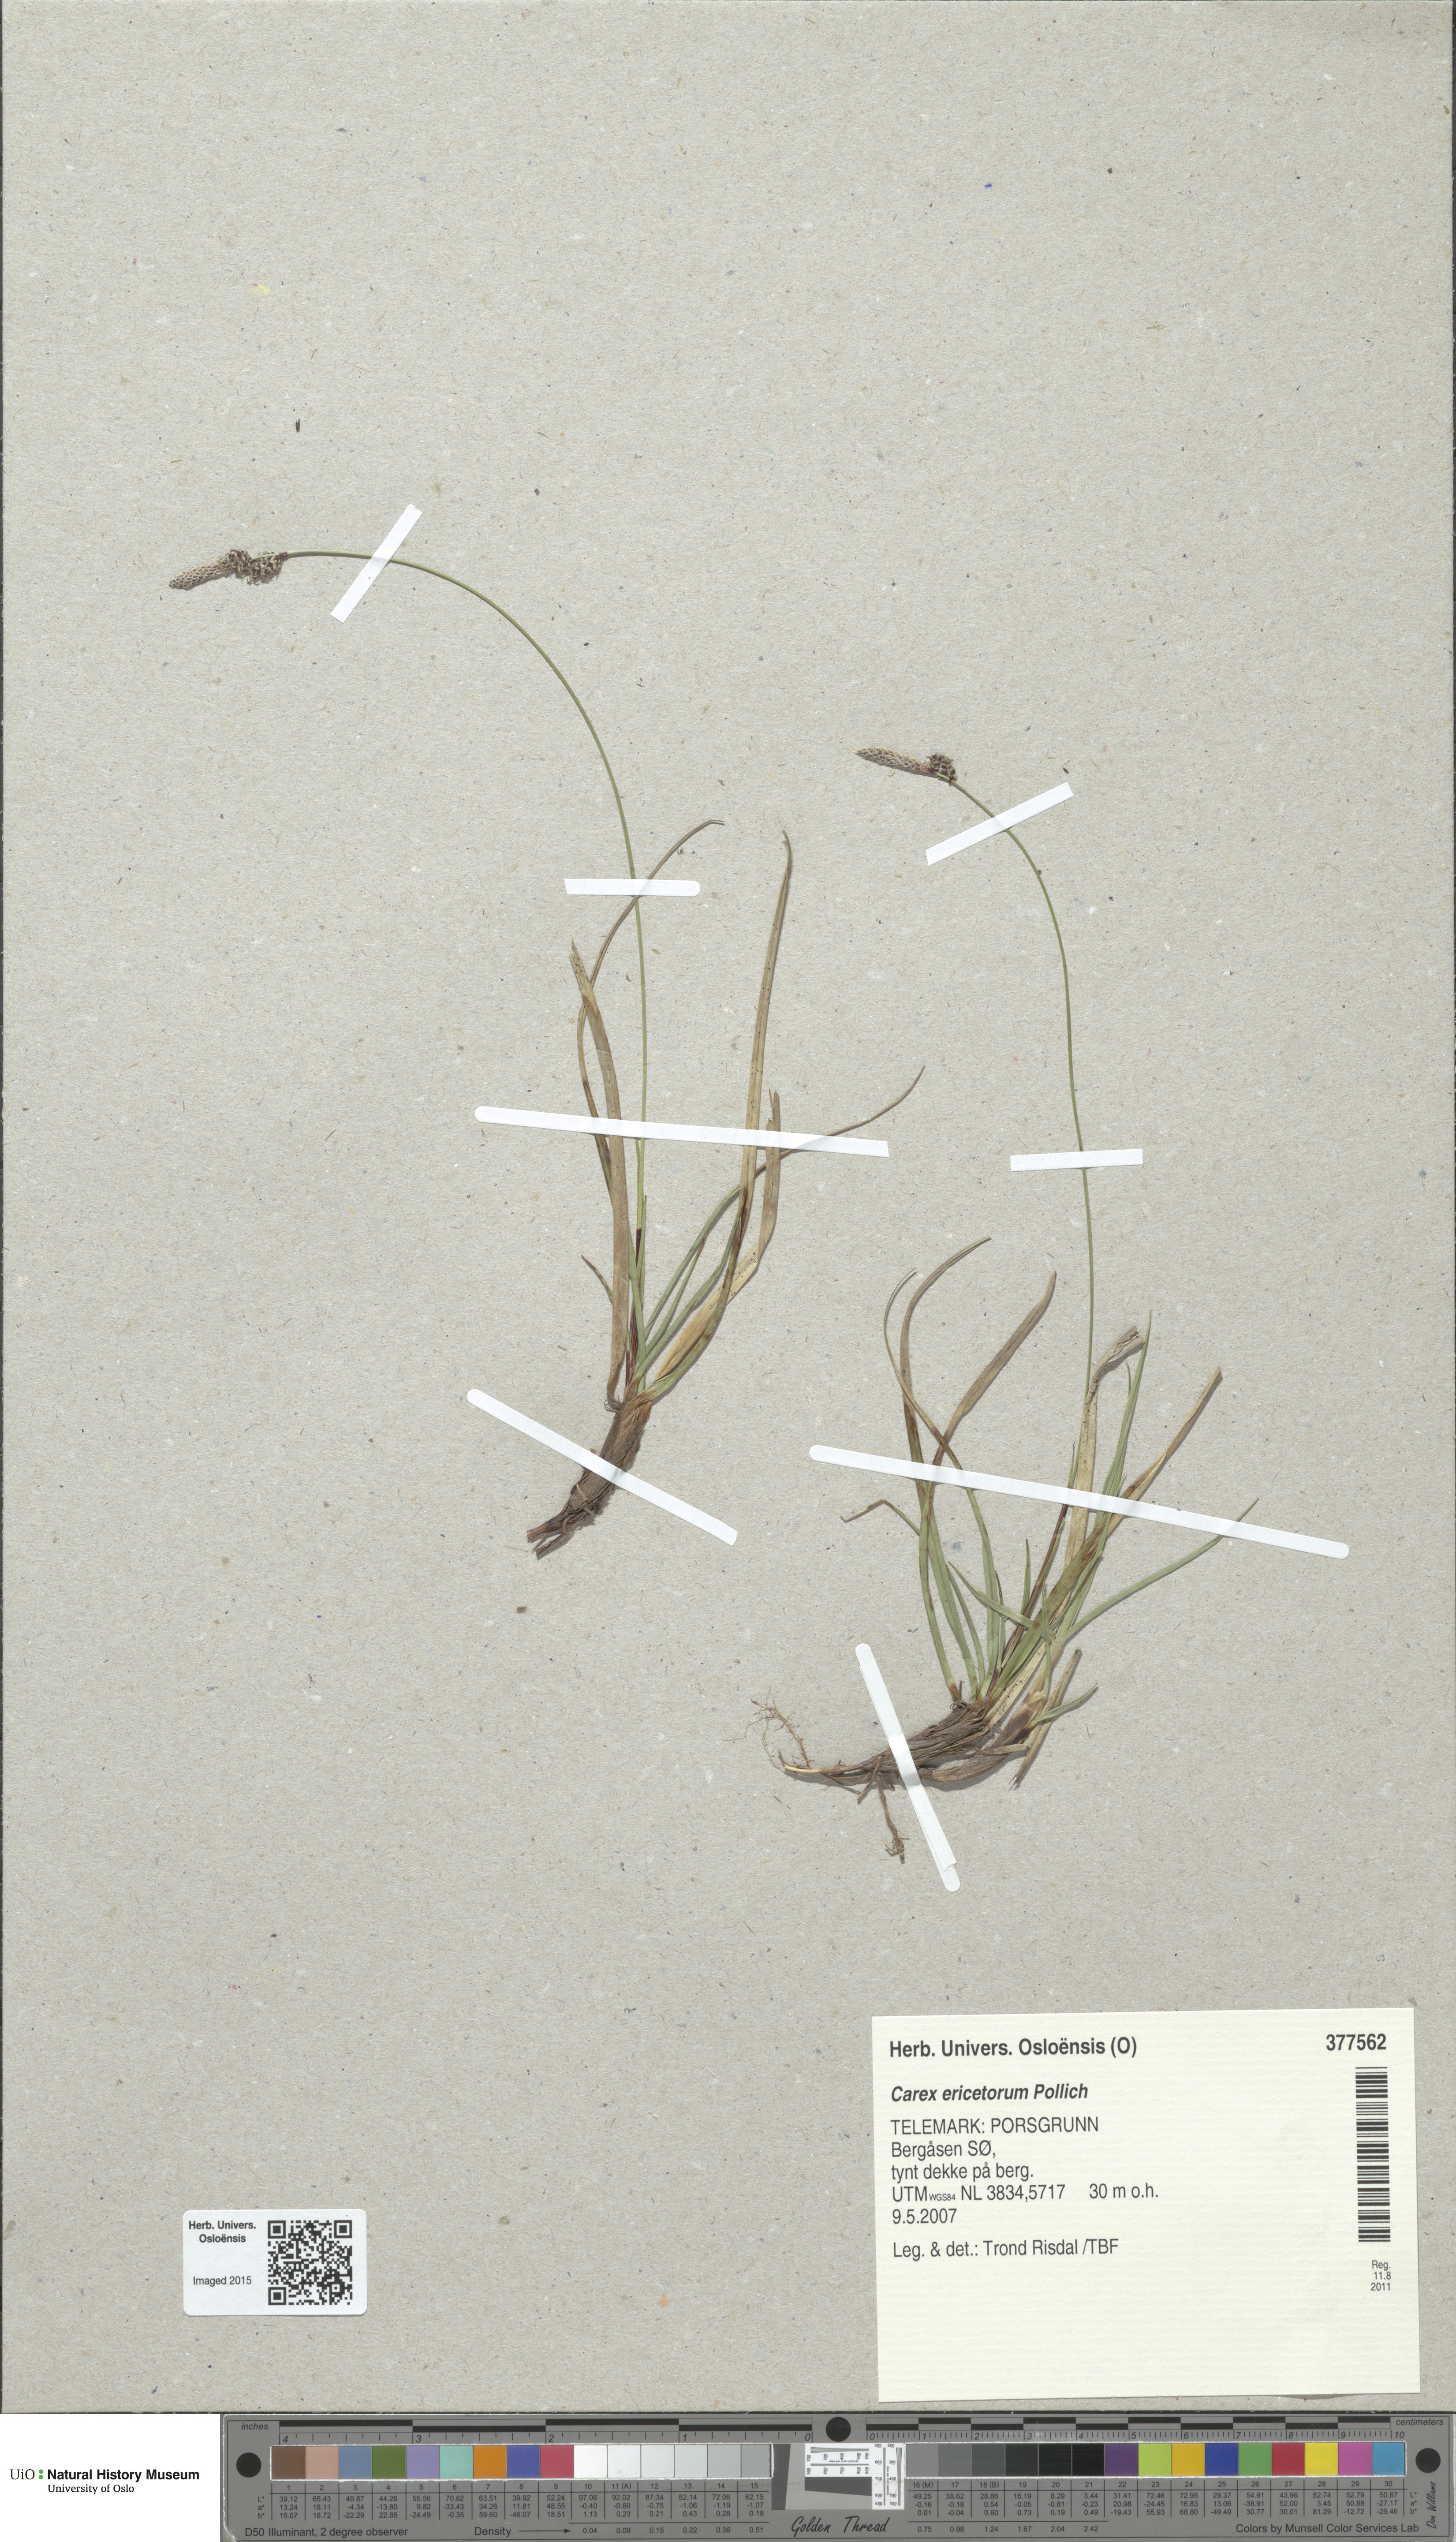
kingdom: Plantae
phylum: Tracheophyta
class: Liliopsida
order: Poales
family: Cyperaceae
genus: Carex
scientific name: Carex ericetorum
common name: Rare spring-sedge
